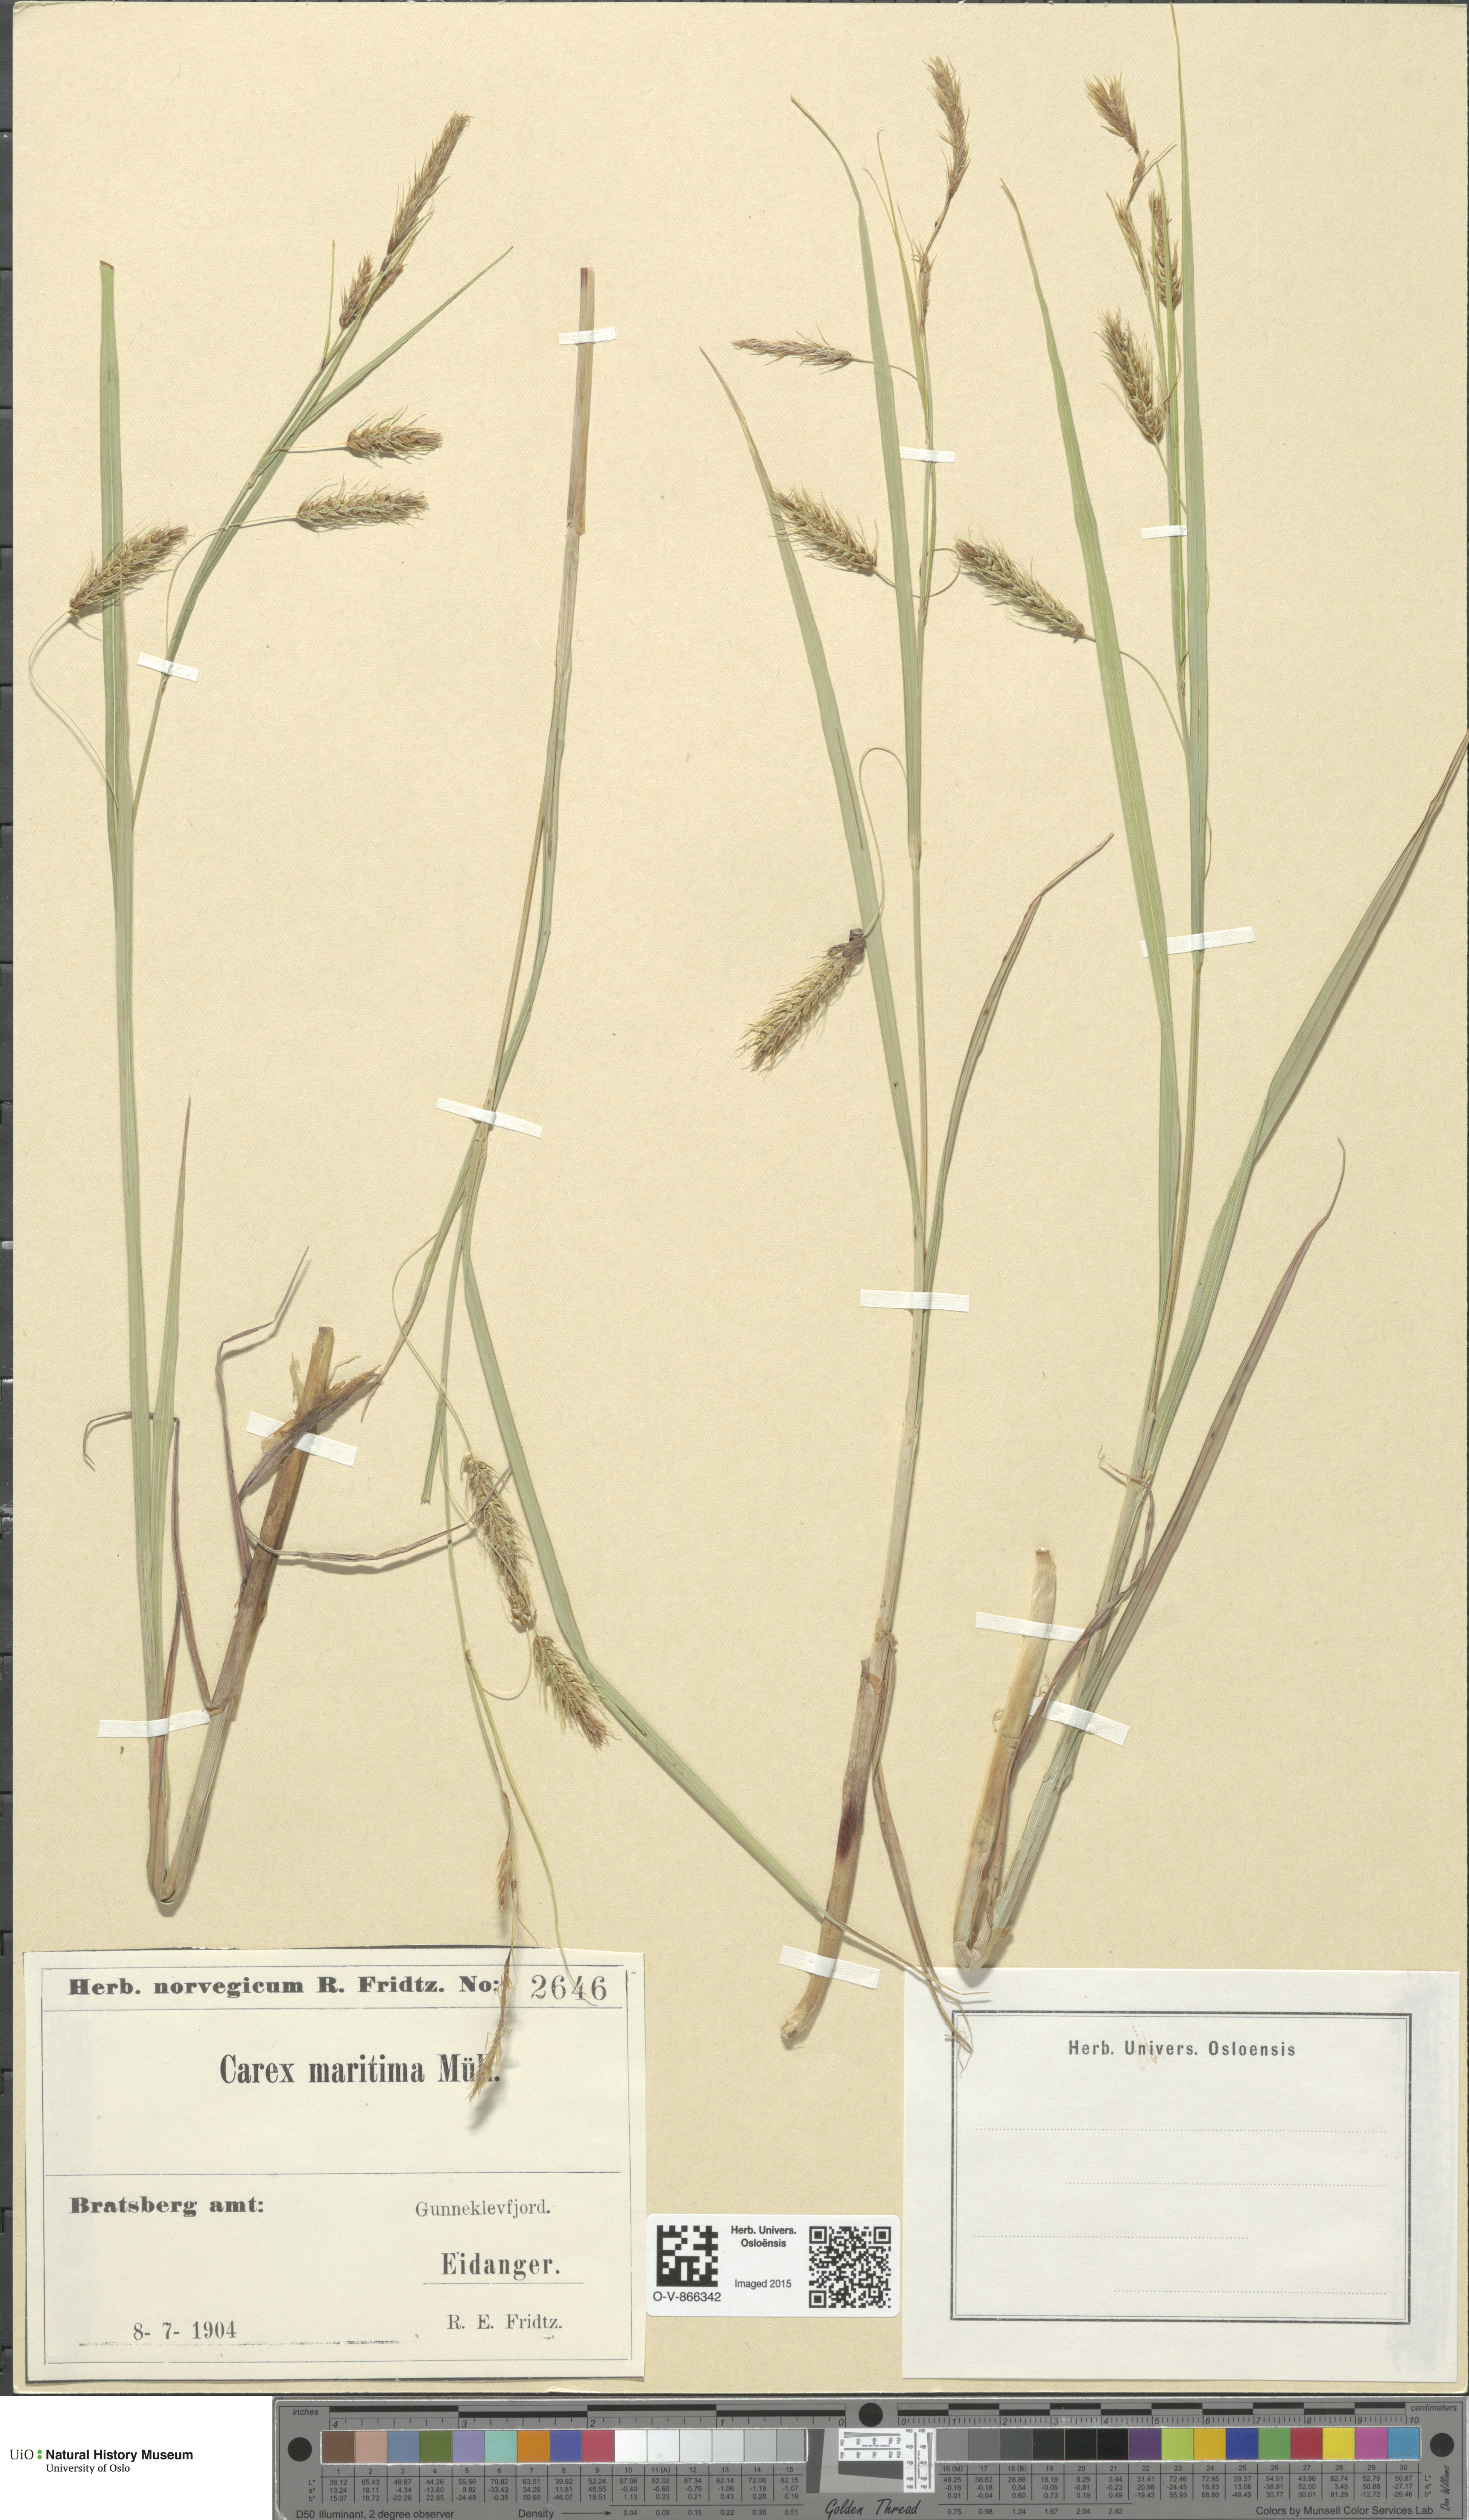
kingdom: Plantae
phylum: Tracheophyta
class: Liliopsida
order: Poales
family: Cyperaceae
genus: Carex
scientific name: Carex paleacea
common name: Chaffy sedge
